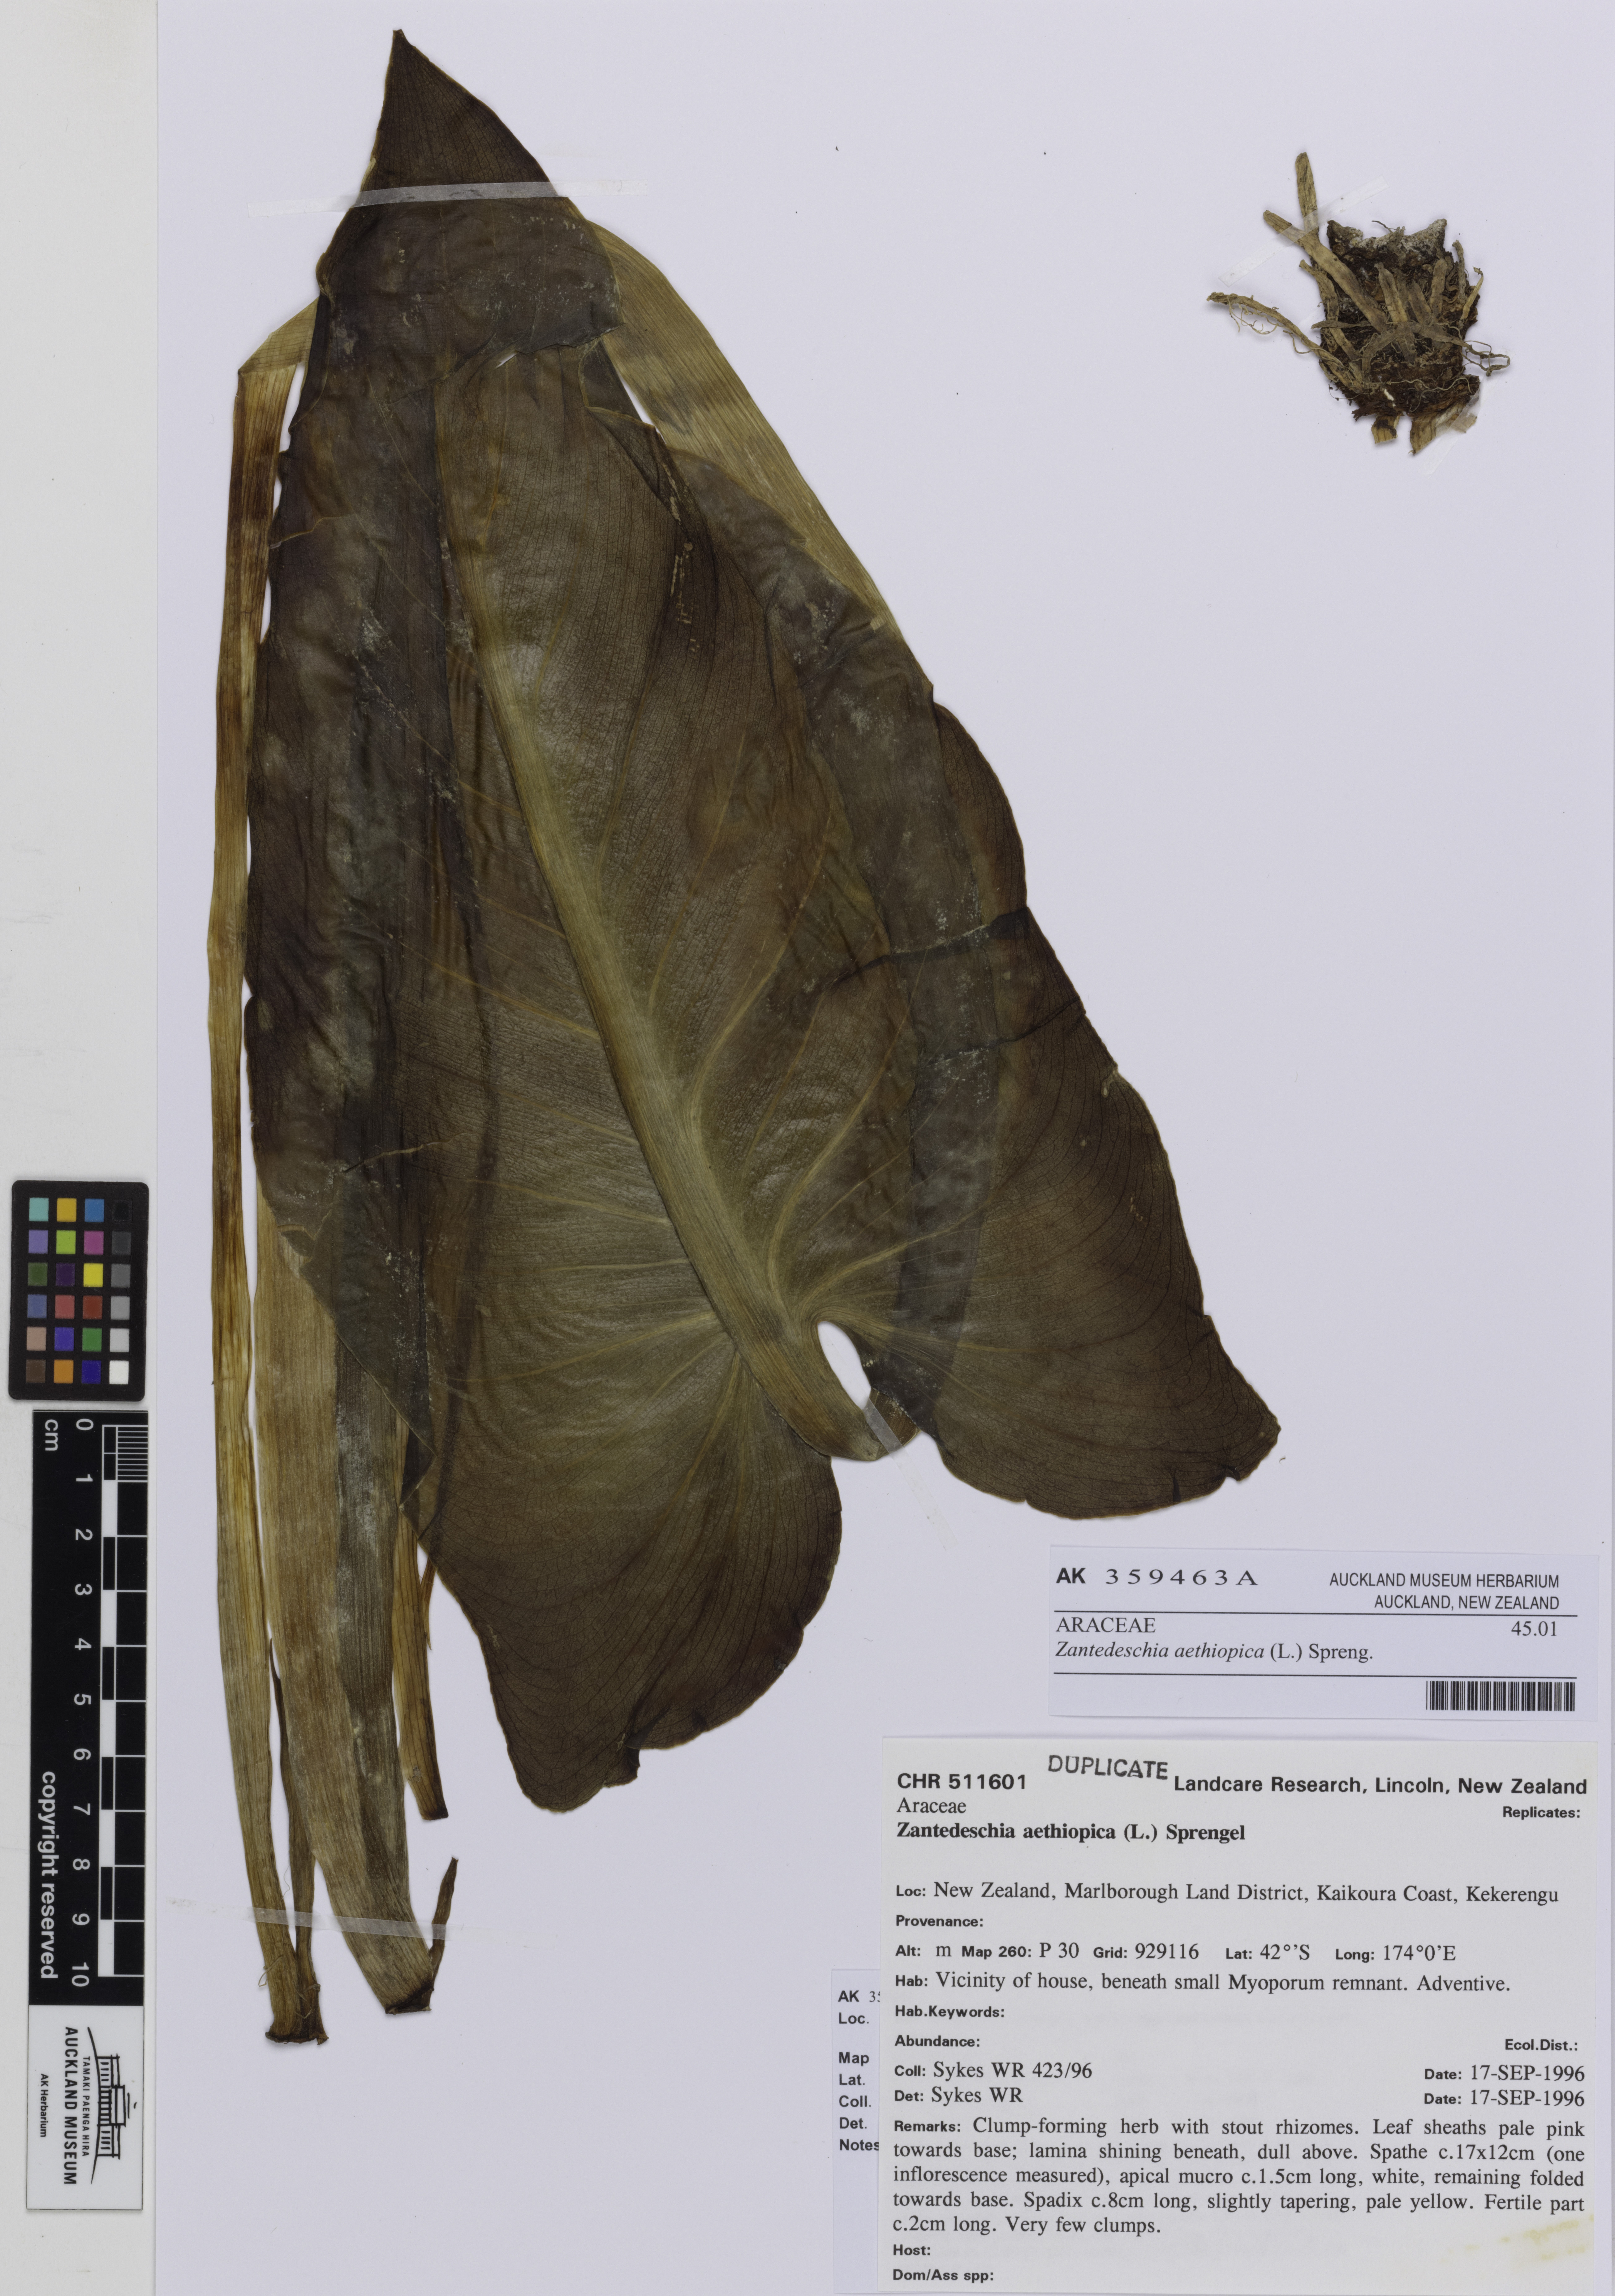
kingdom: Plantae
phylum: Tracheophyta
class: Liliopsida
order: Alismatales
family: Araceae
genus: Zantedeschia
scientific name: Zantedeschia aethiopica
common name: Altar-lily
